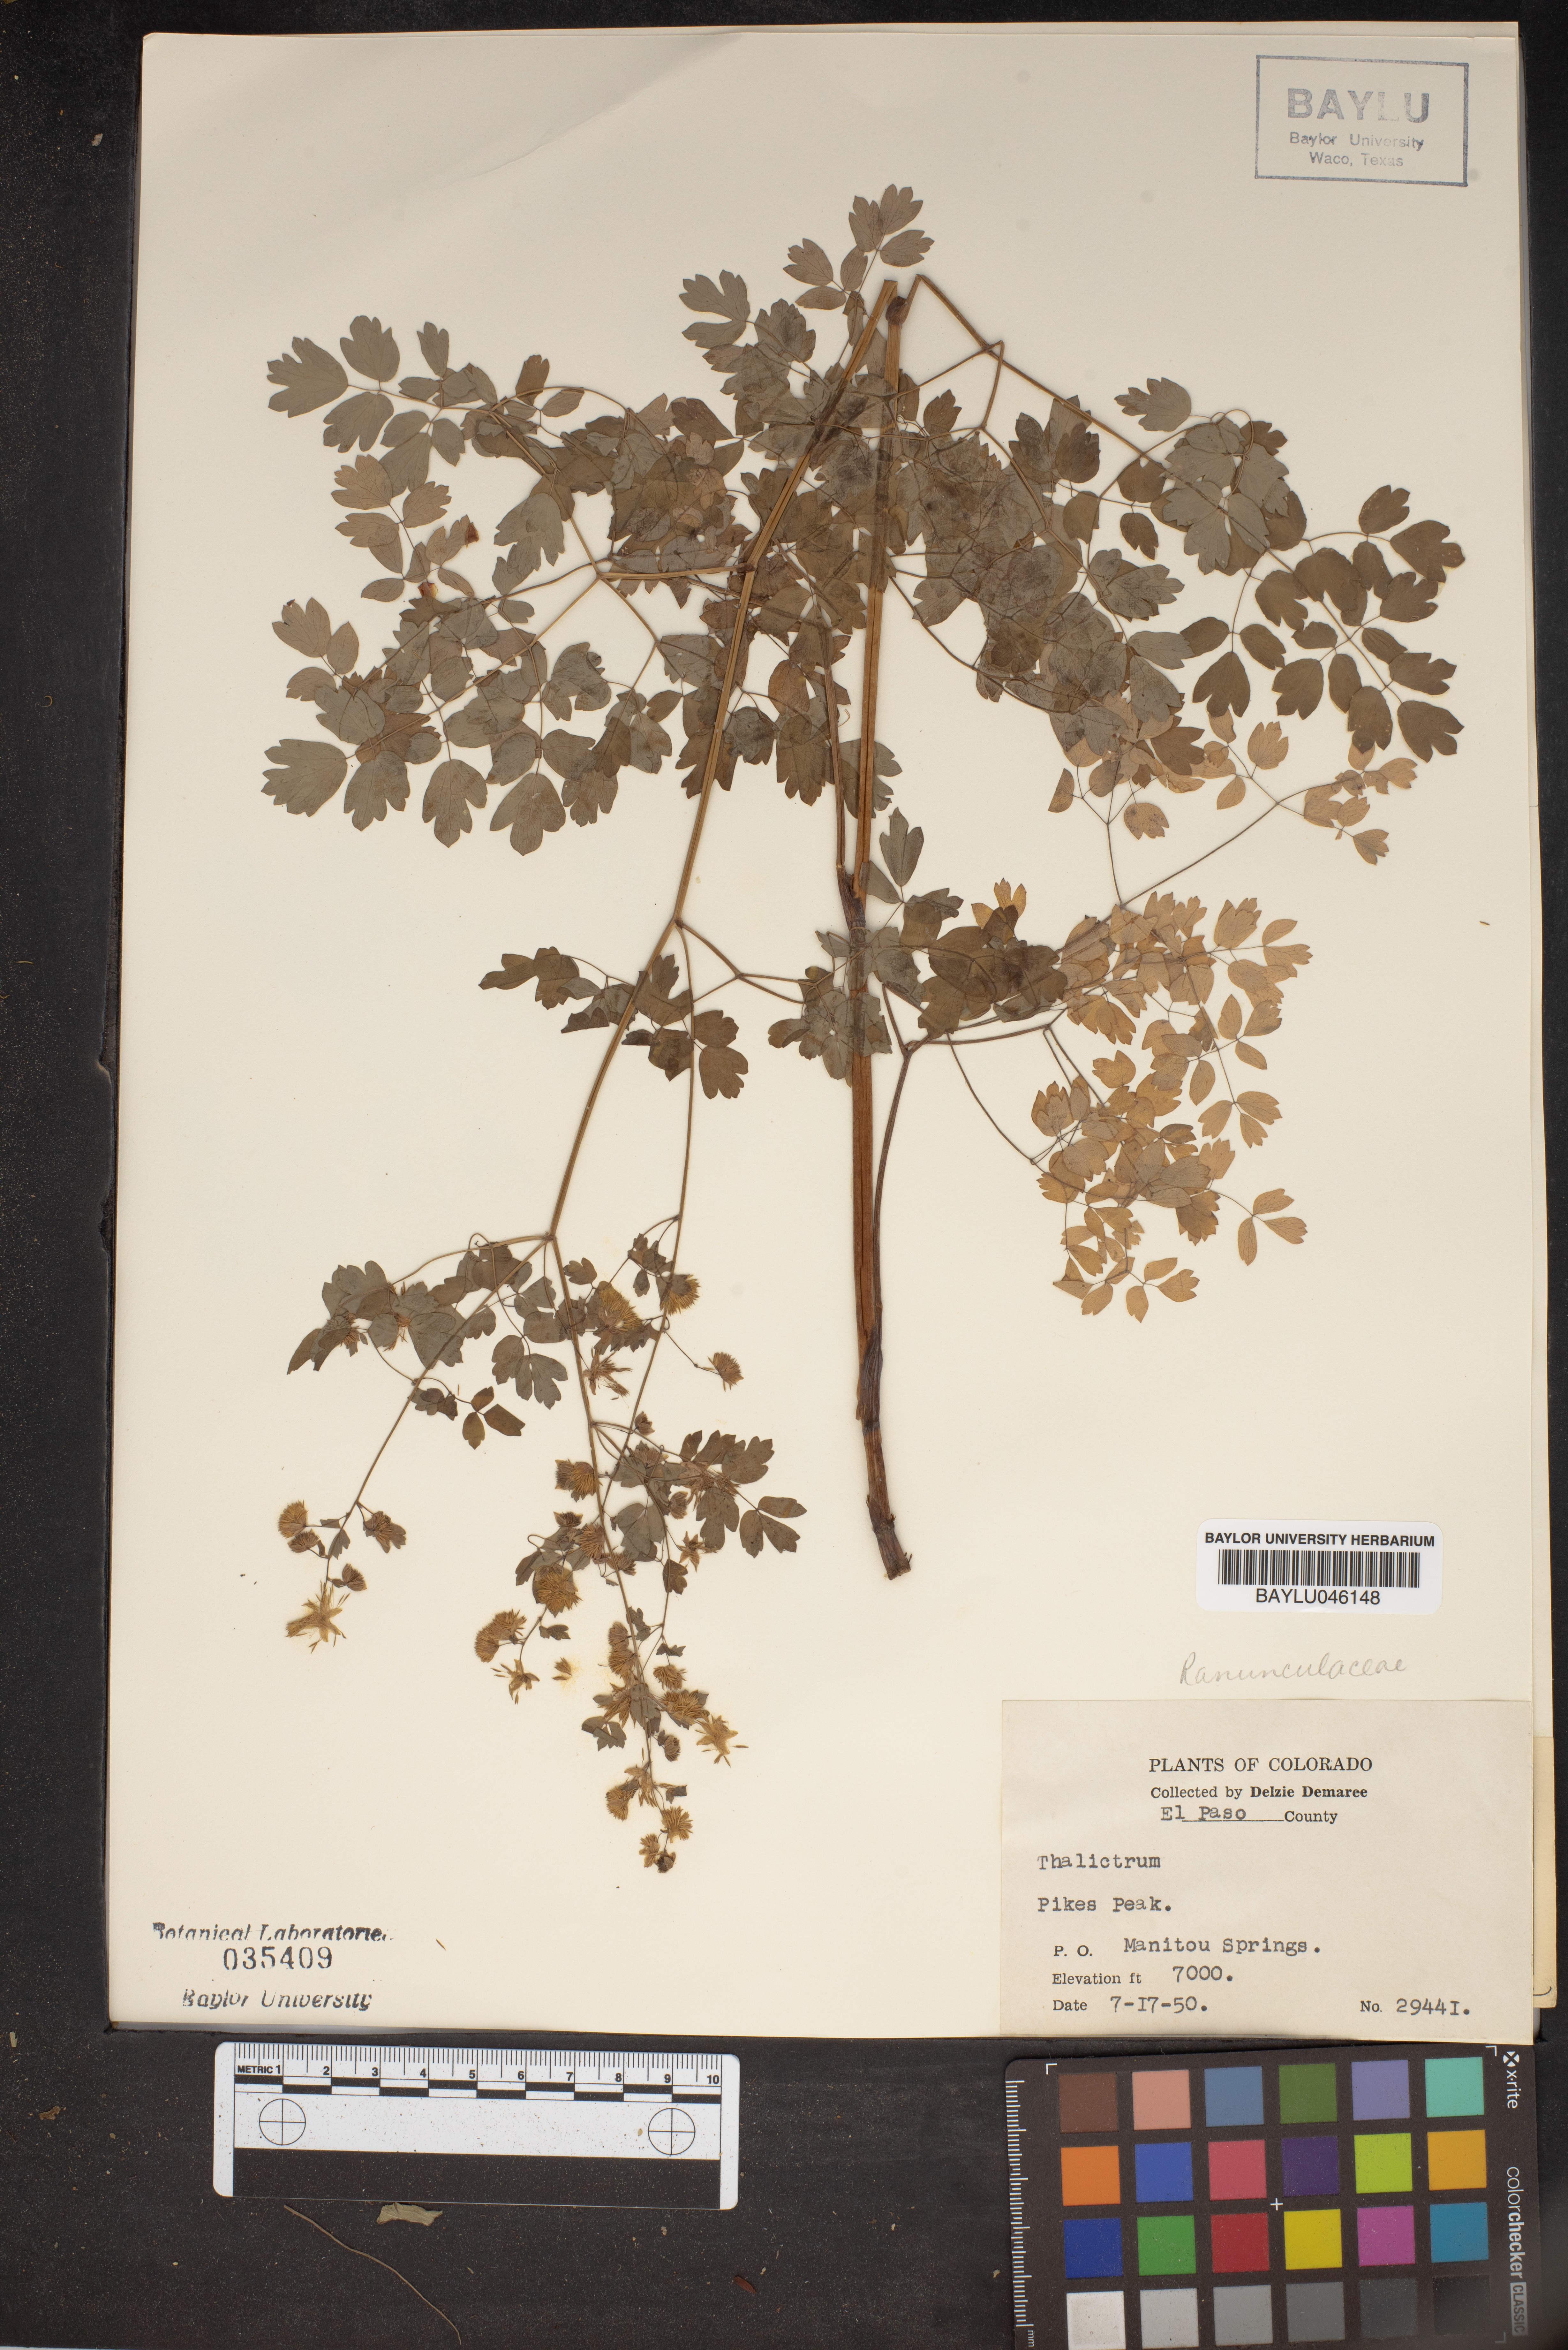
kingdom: Plantae
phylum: Tracheophyta
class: Magnoliopsida
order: Ranunculales
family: Ranunculaceae
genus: Thalictrum
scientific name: Thalictrum
